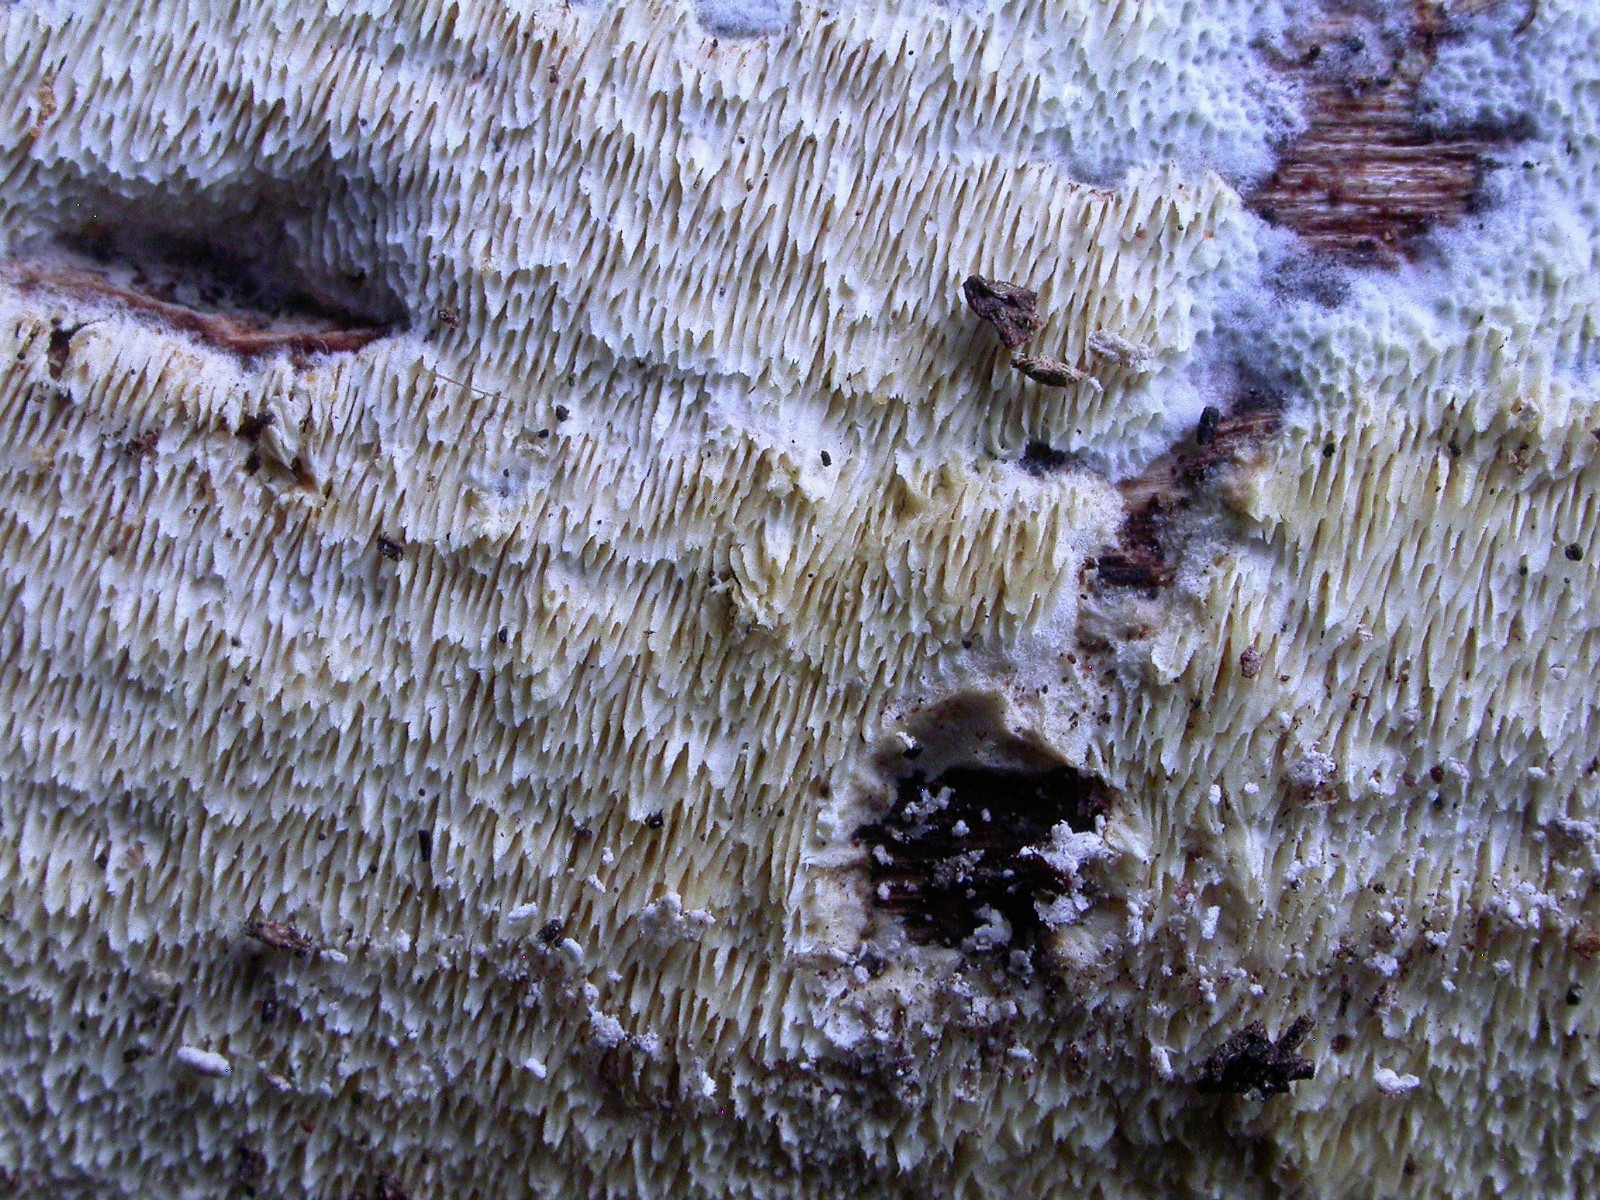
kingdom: Fungi
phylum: Basidiomycota
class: Agaricomycetes
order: Hymenochaetales
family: Schizoporaceae
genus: Schizopora
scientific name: Schizopora paradoxa
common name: hvid tandsvamp
